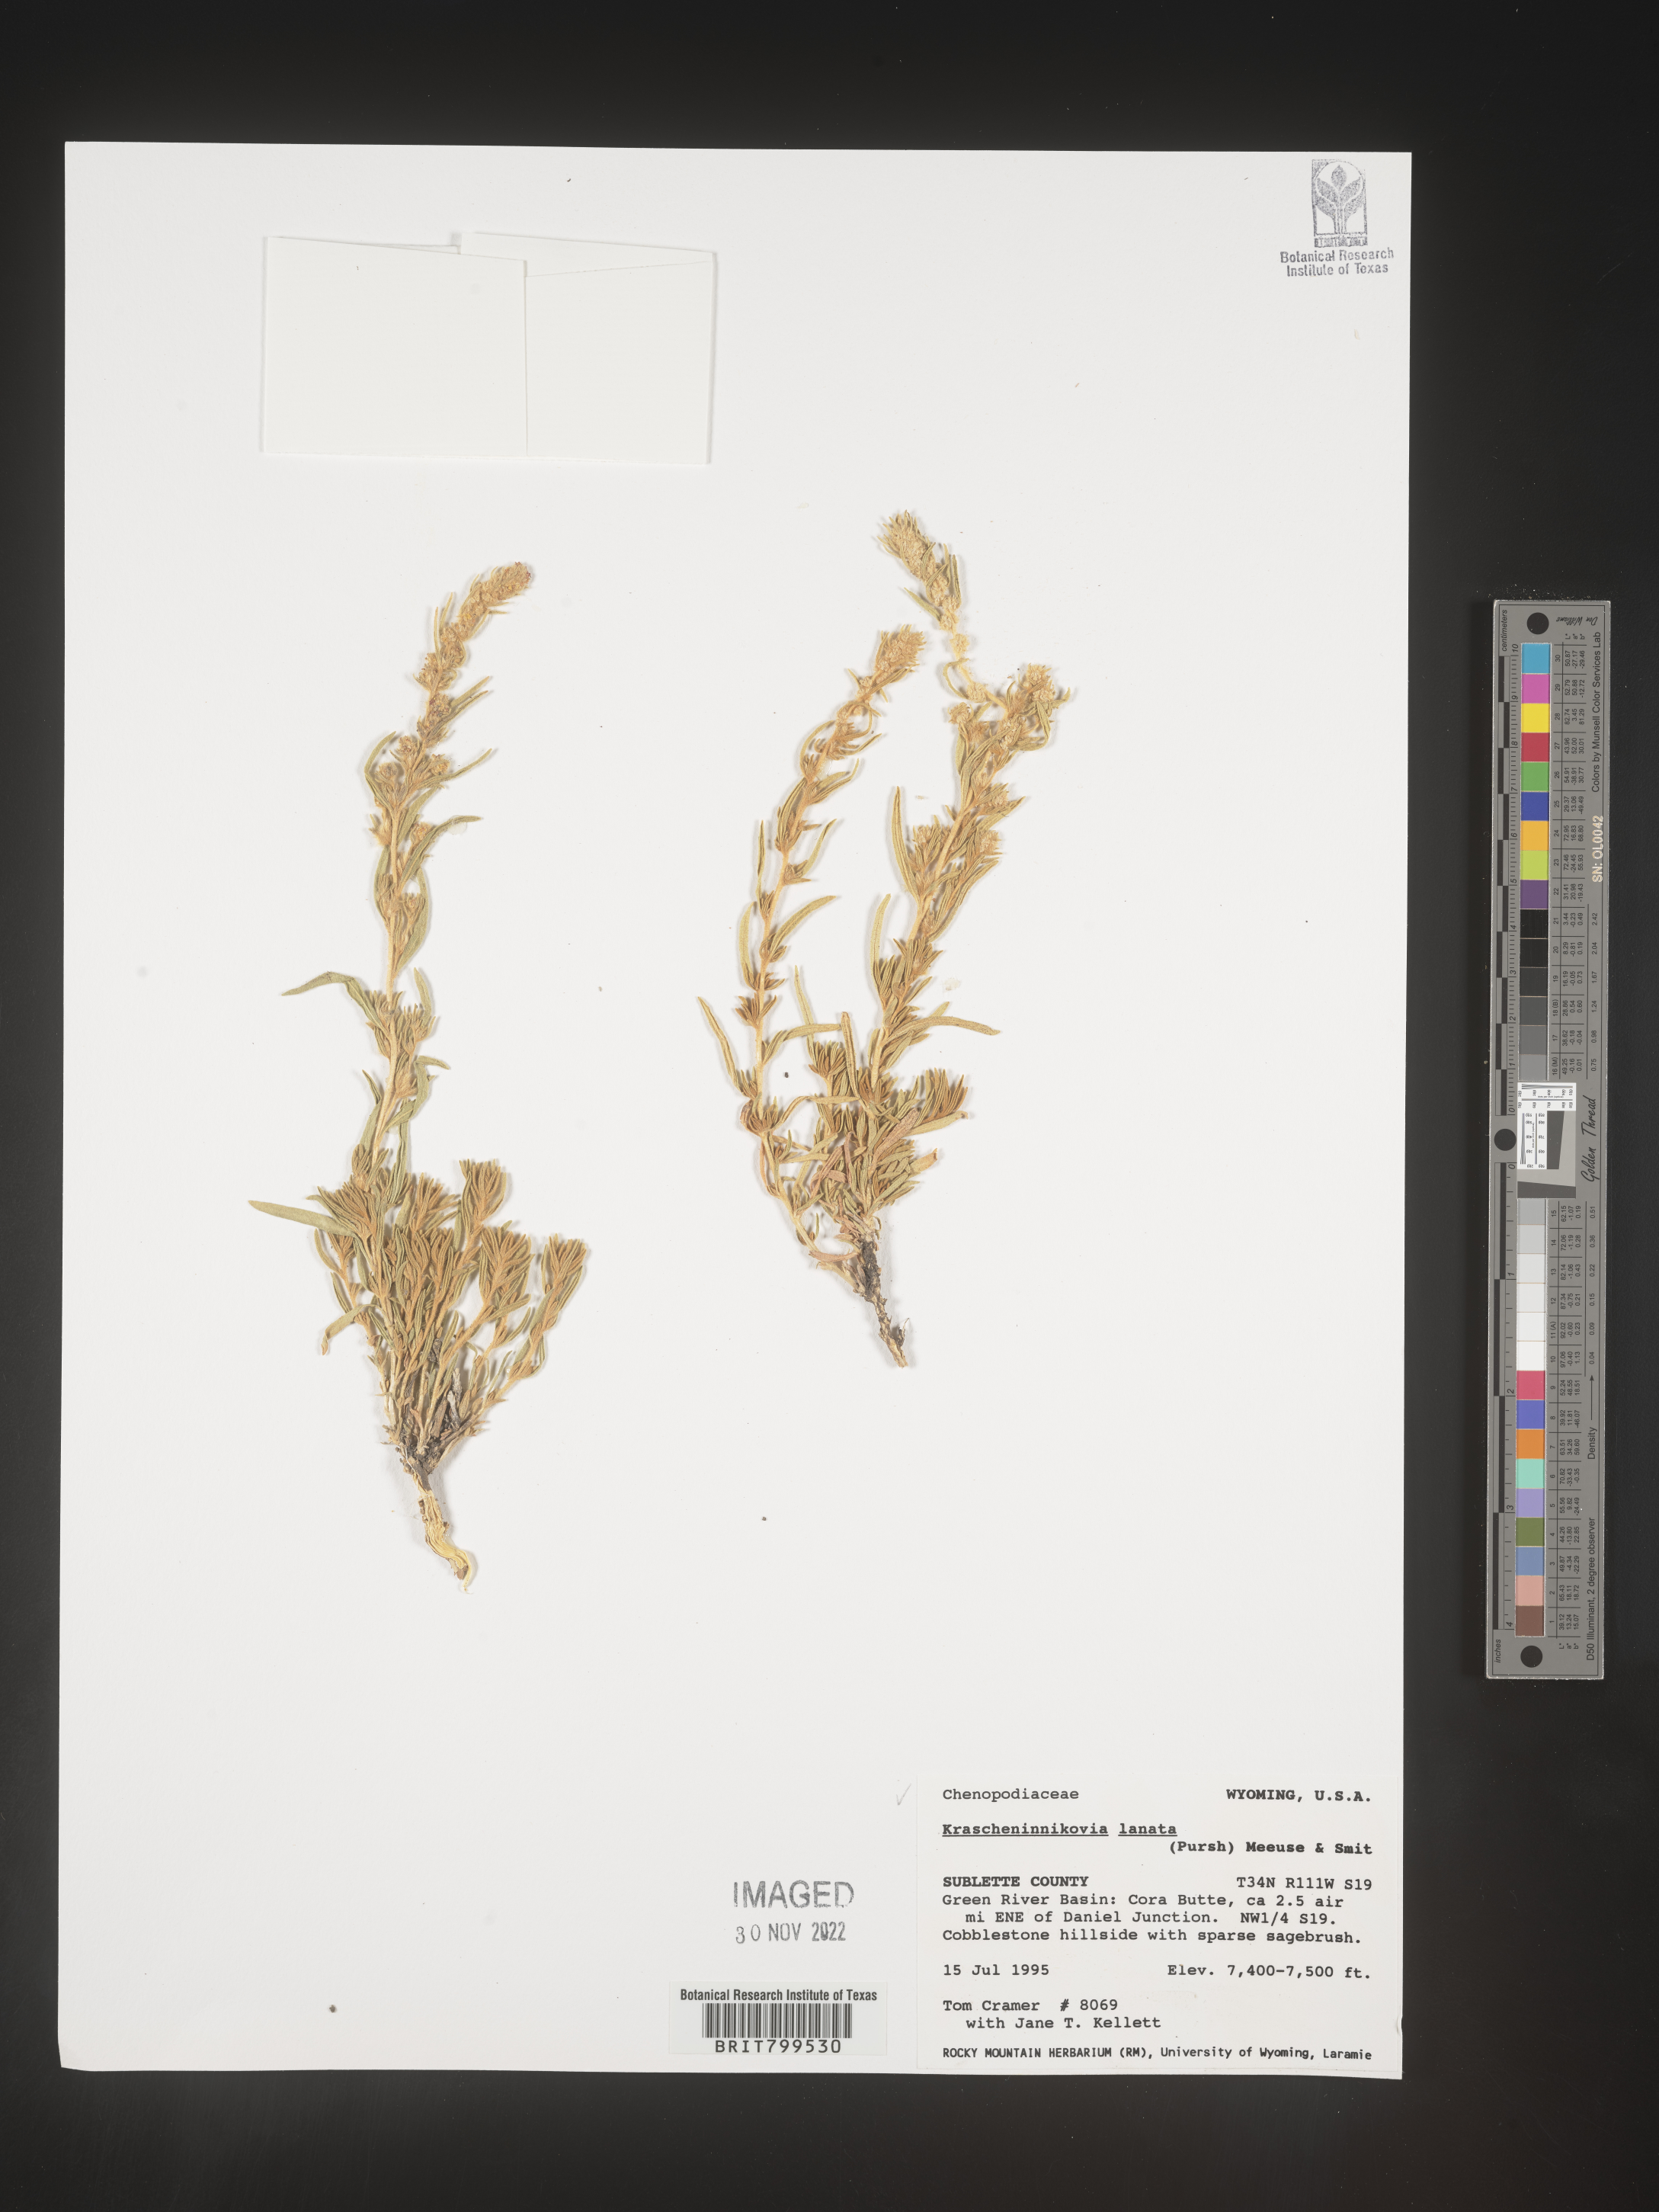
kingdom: Plantae
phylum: Tracheophyta
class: Magnoliopsida
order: Caryophyllales
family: Amaranthaceae
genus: Krascheninnikovia
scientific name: Krascheninnikovia
